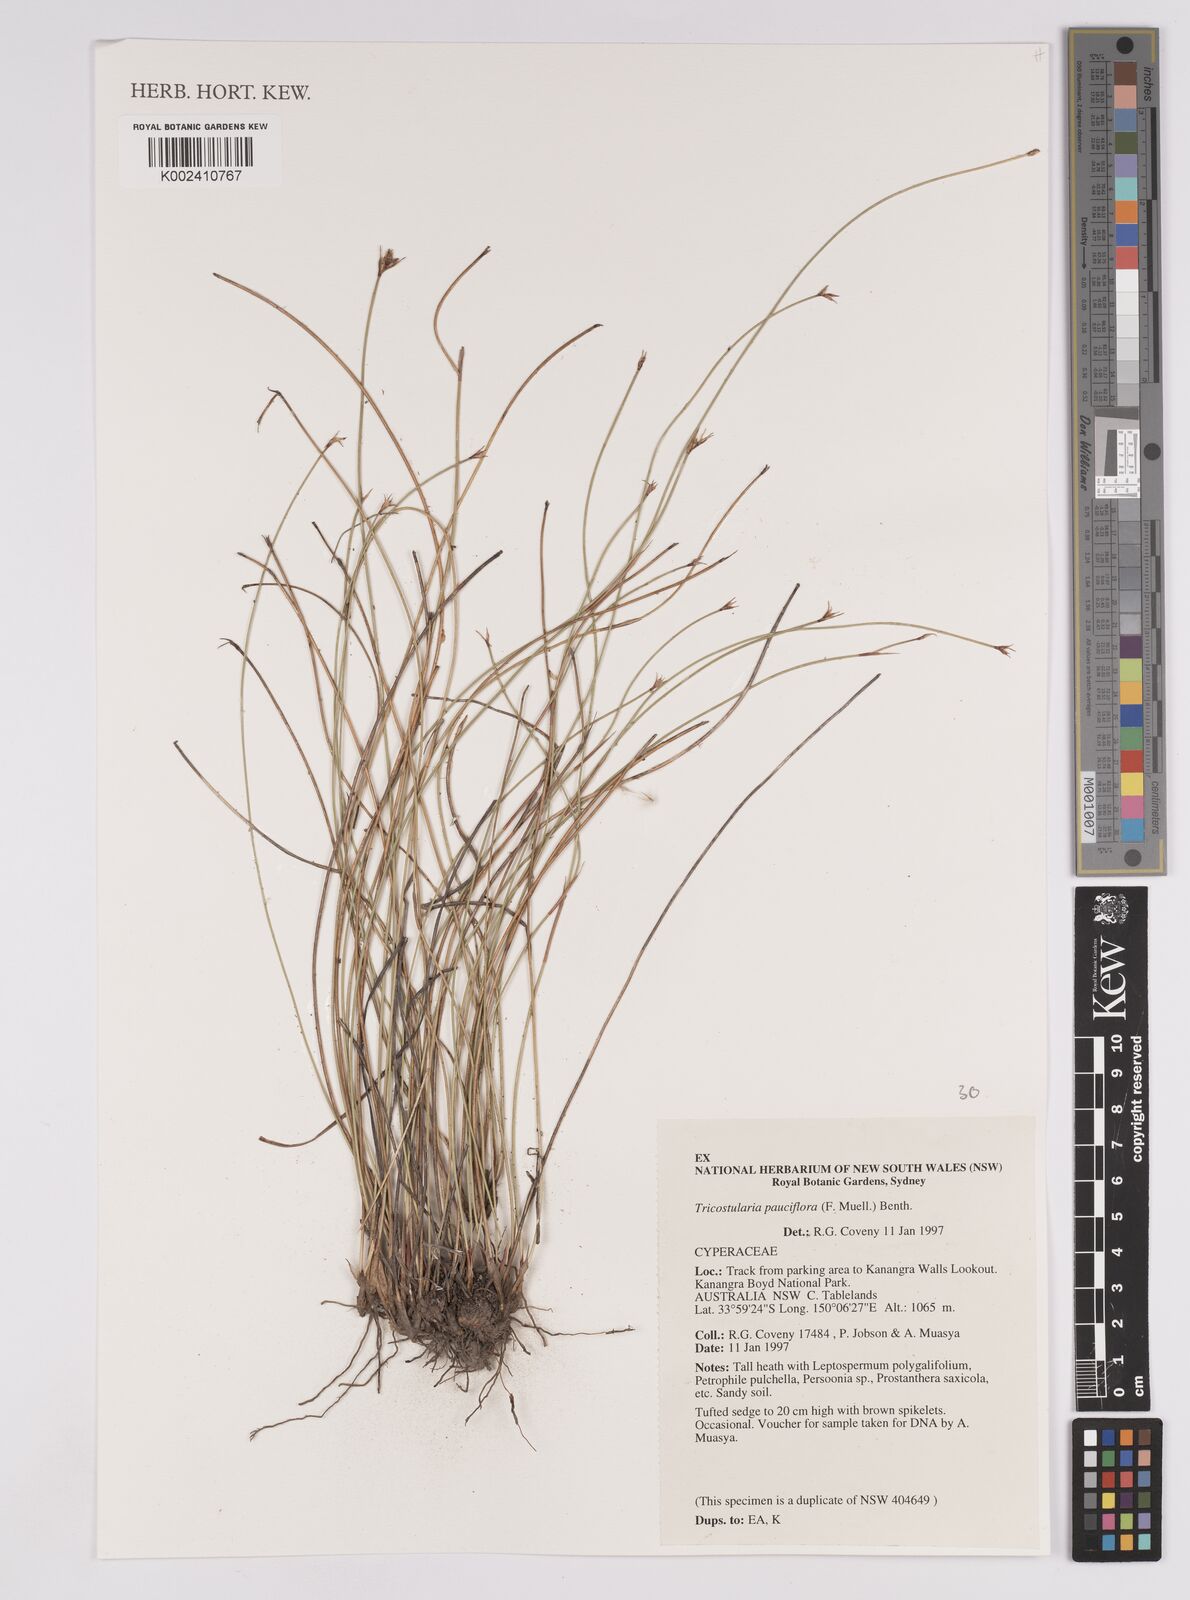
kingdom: Plantae
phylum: Tracheophyta
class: Liliopsida
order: Poales
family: Cyperaceae
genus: Tricostularia
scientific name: Tricostularia pauciflora
